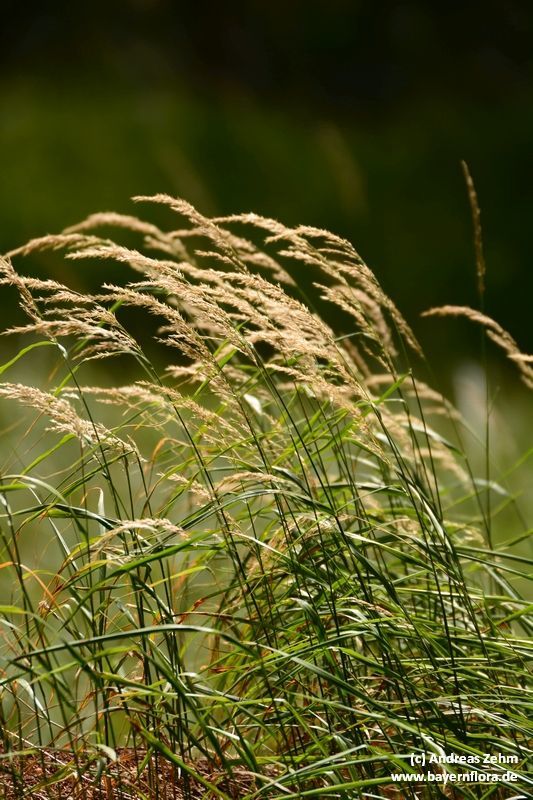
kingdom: Plantae
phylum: Tracheophyta
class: Liliopsida
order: Poales
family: Poaceae
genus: Calamagrostis
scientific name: Calamagrostis varia
